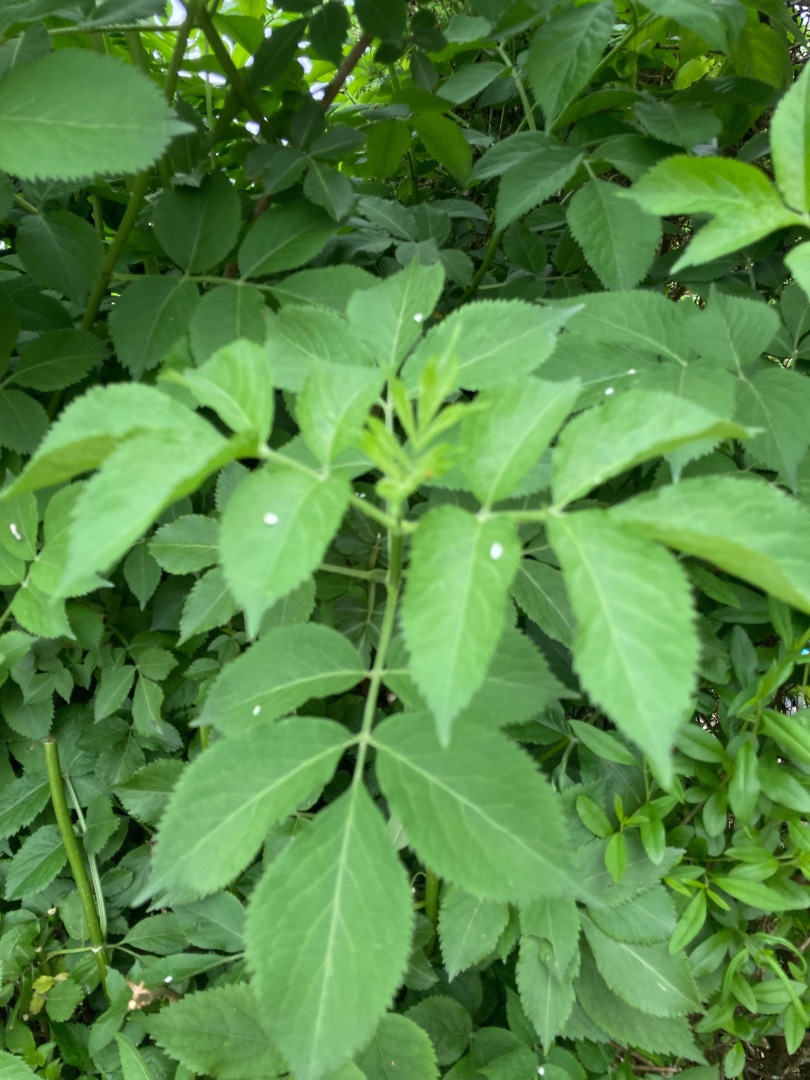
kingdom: Plantae
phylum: Tracheophyta
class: Magnoliopsida
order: Dipsacales
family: Viburnaceae
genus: Sambucus
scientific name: Sambucus
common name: Hyldeslægten
